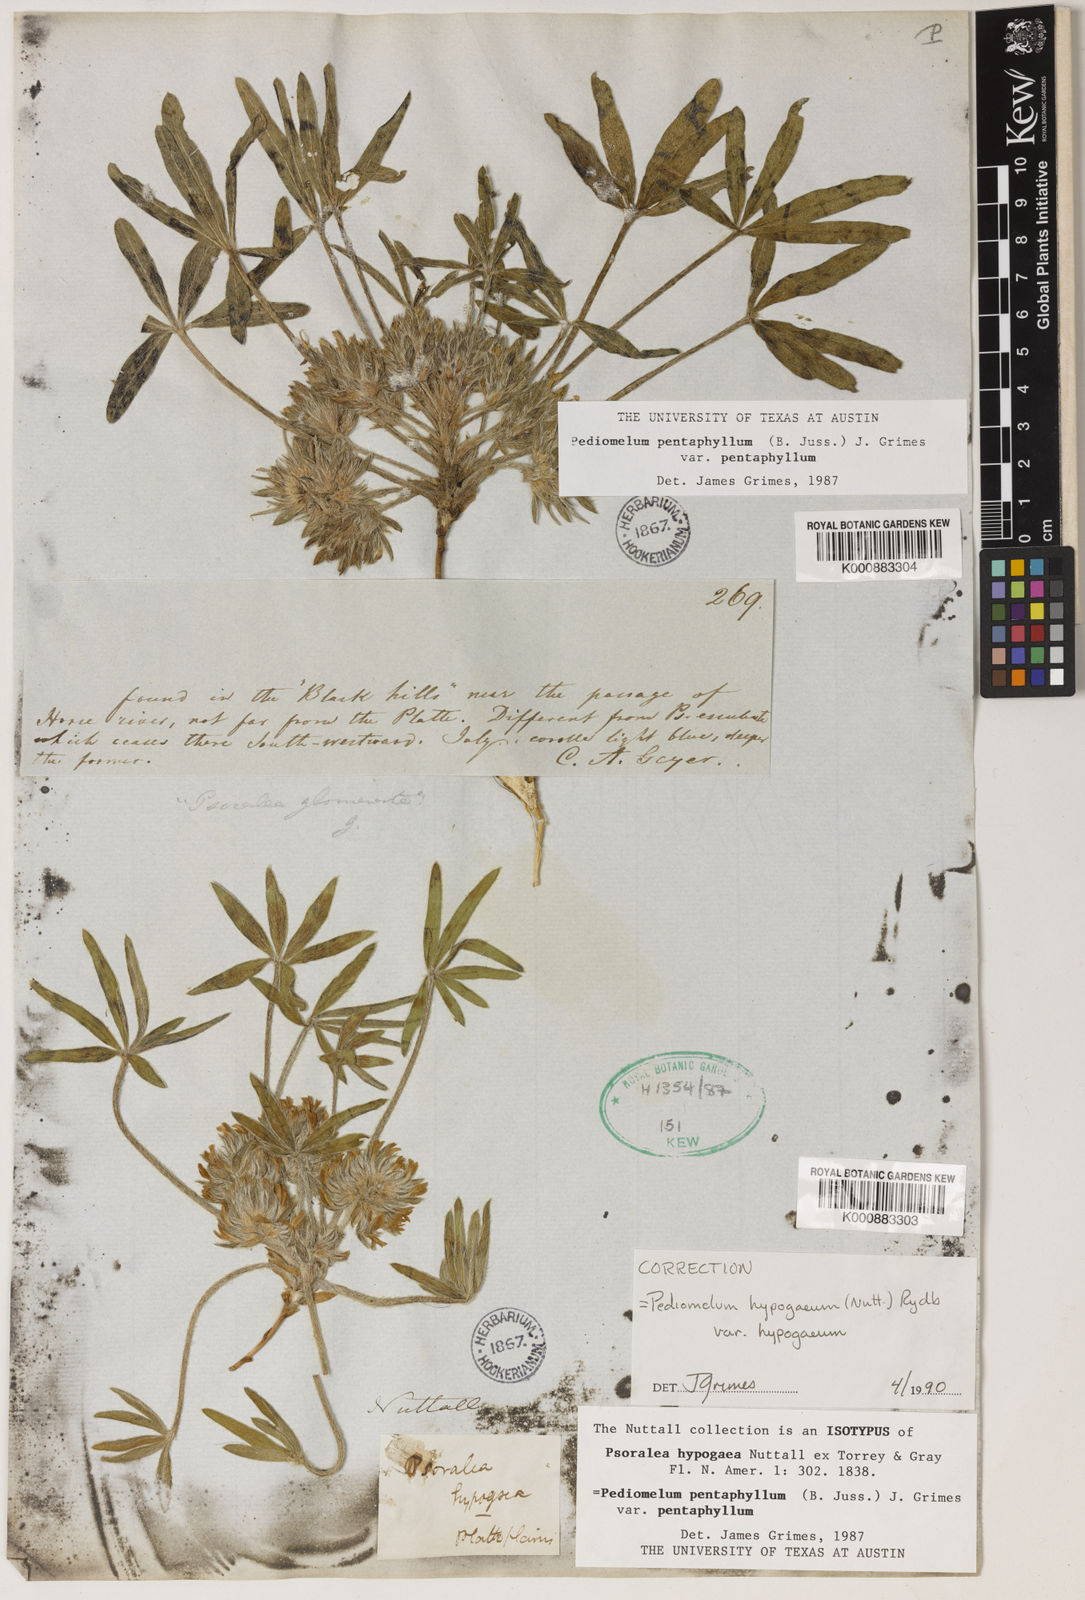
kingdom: Plantae
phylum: Tracheophyta
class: Magnoliopsida
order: Fabales
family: Fabaceae
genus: Pediomelum
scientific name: Pediomelum hypogaeum
